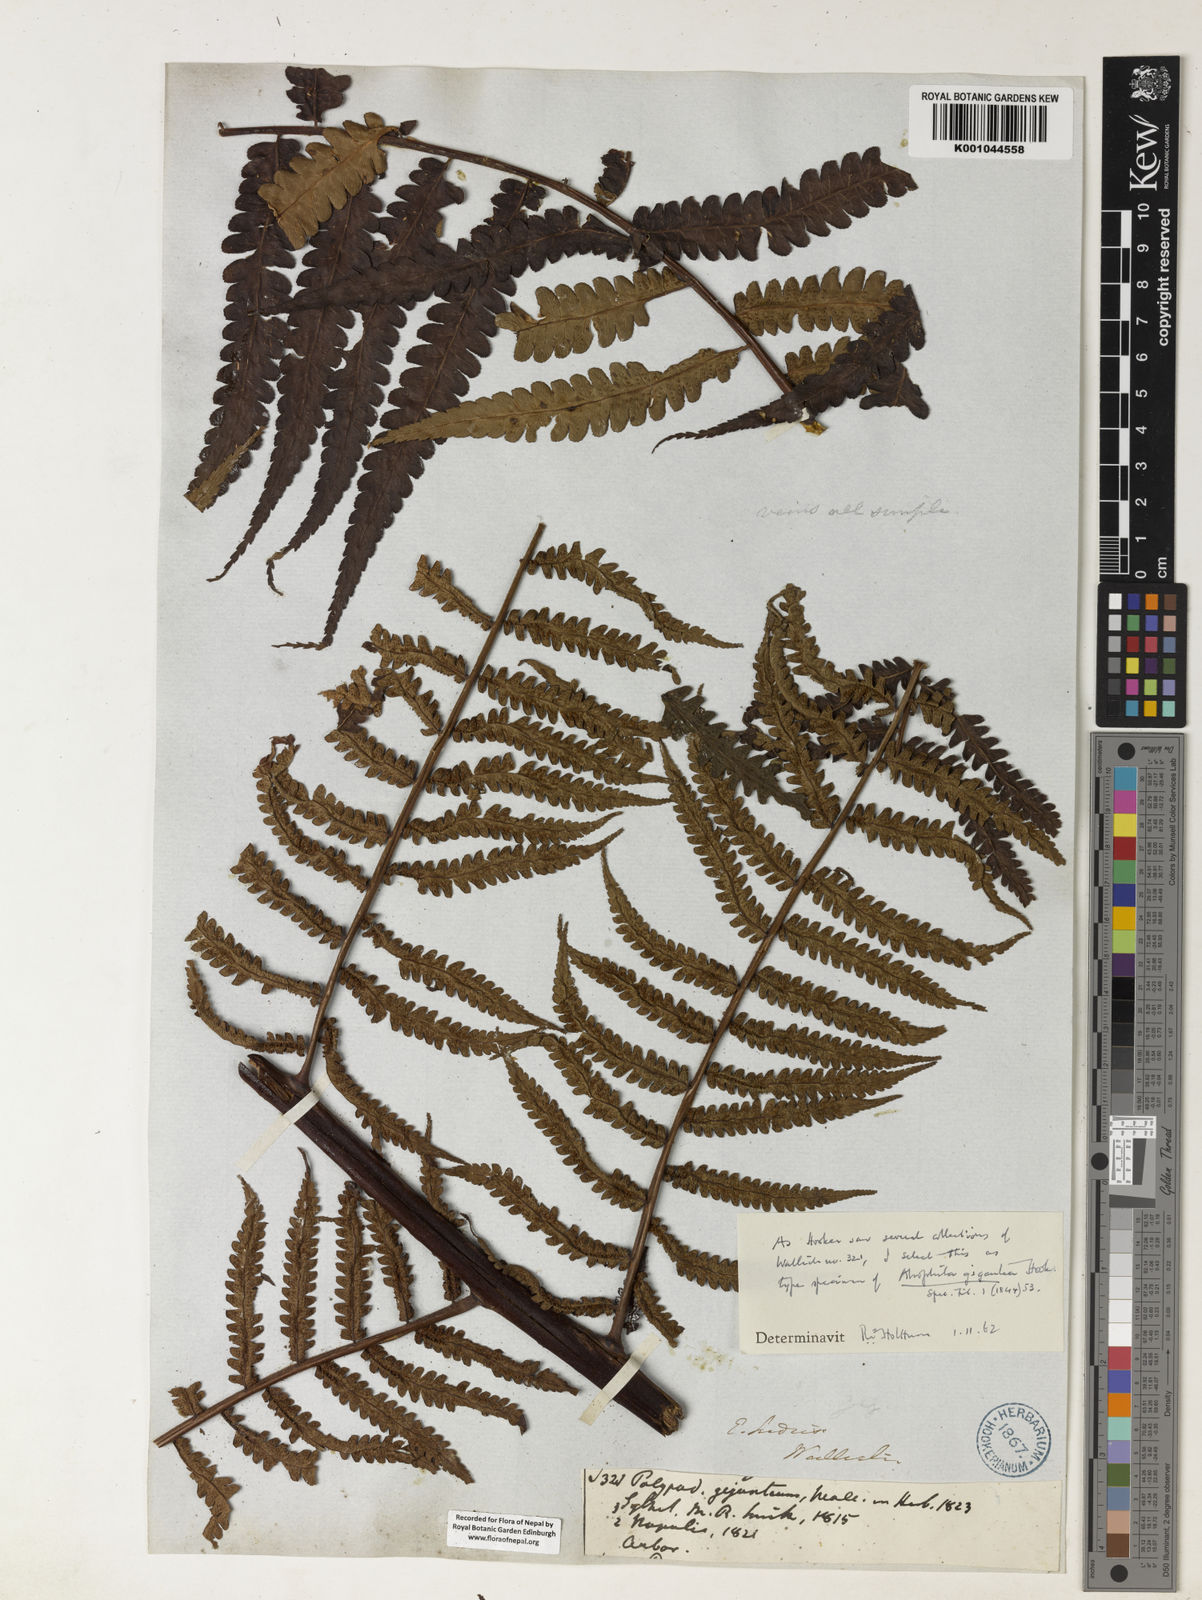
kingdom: Plantae
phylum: Tracheophyta
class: Polypodiopsida
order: Cyatheales
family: Cyatheaceae
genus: Gymnosphaera
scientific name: Gymnosphaera gigantea
